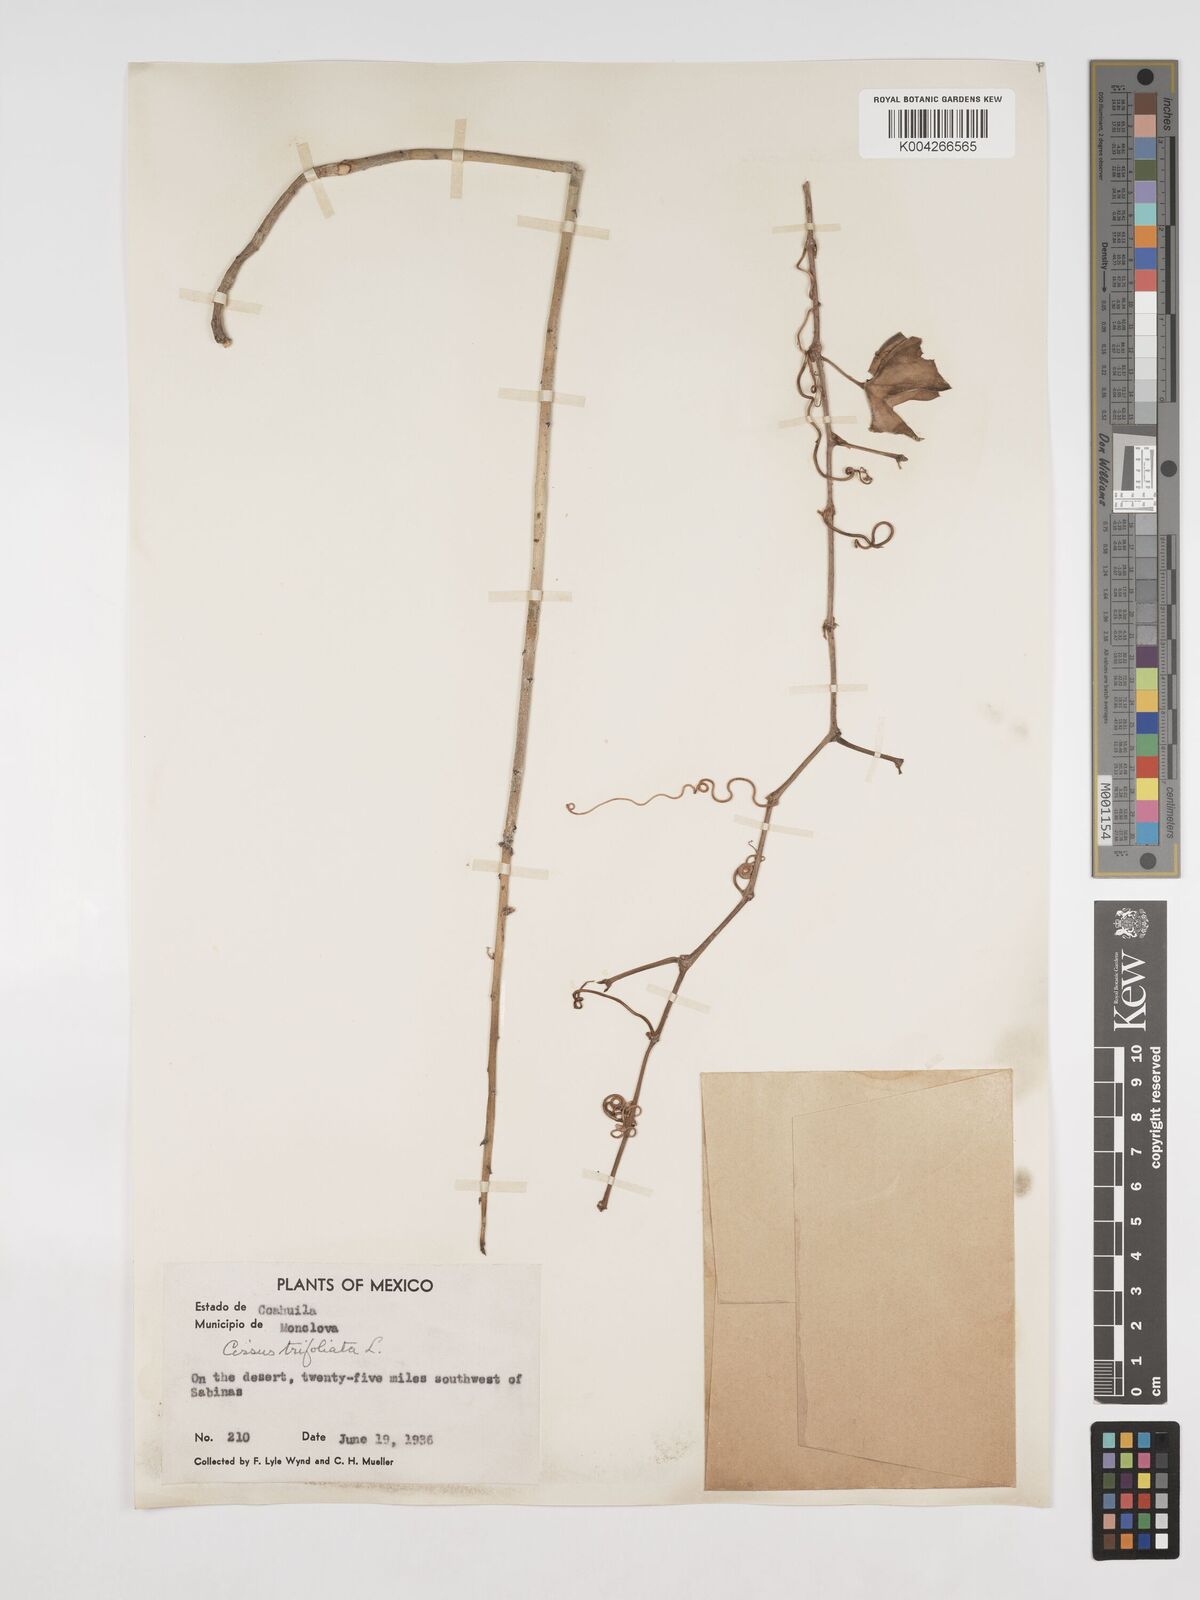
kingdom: Plantae
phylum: Tracheophyta
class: Magnoliopsida
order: Vitales
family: Vitaceae
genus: Cissus
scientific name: Cissus
